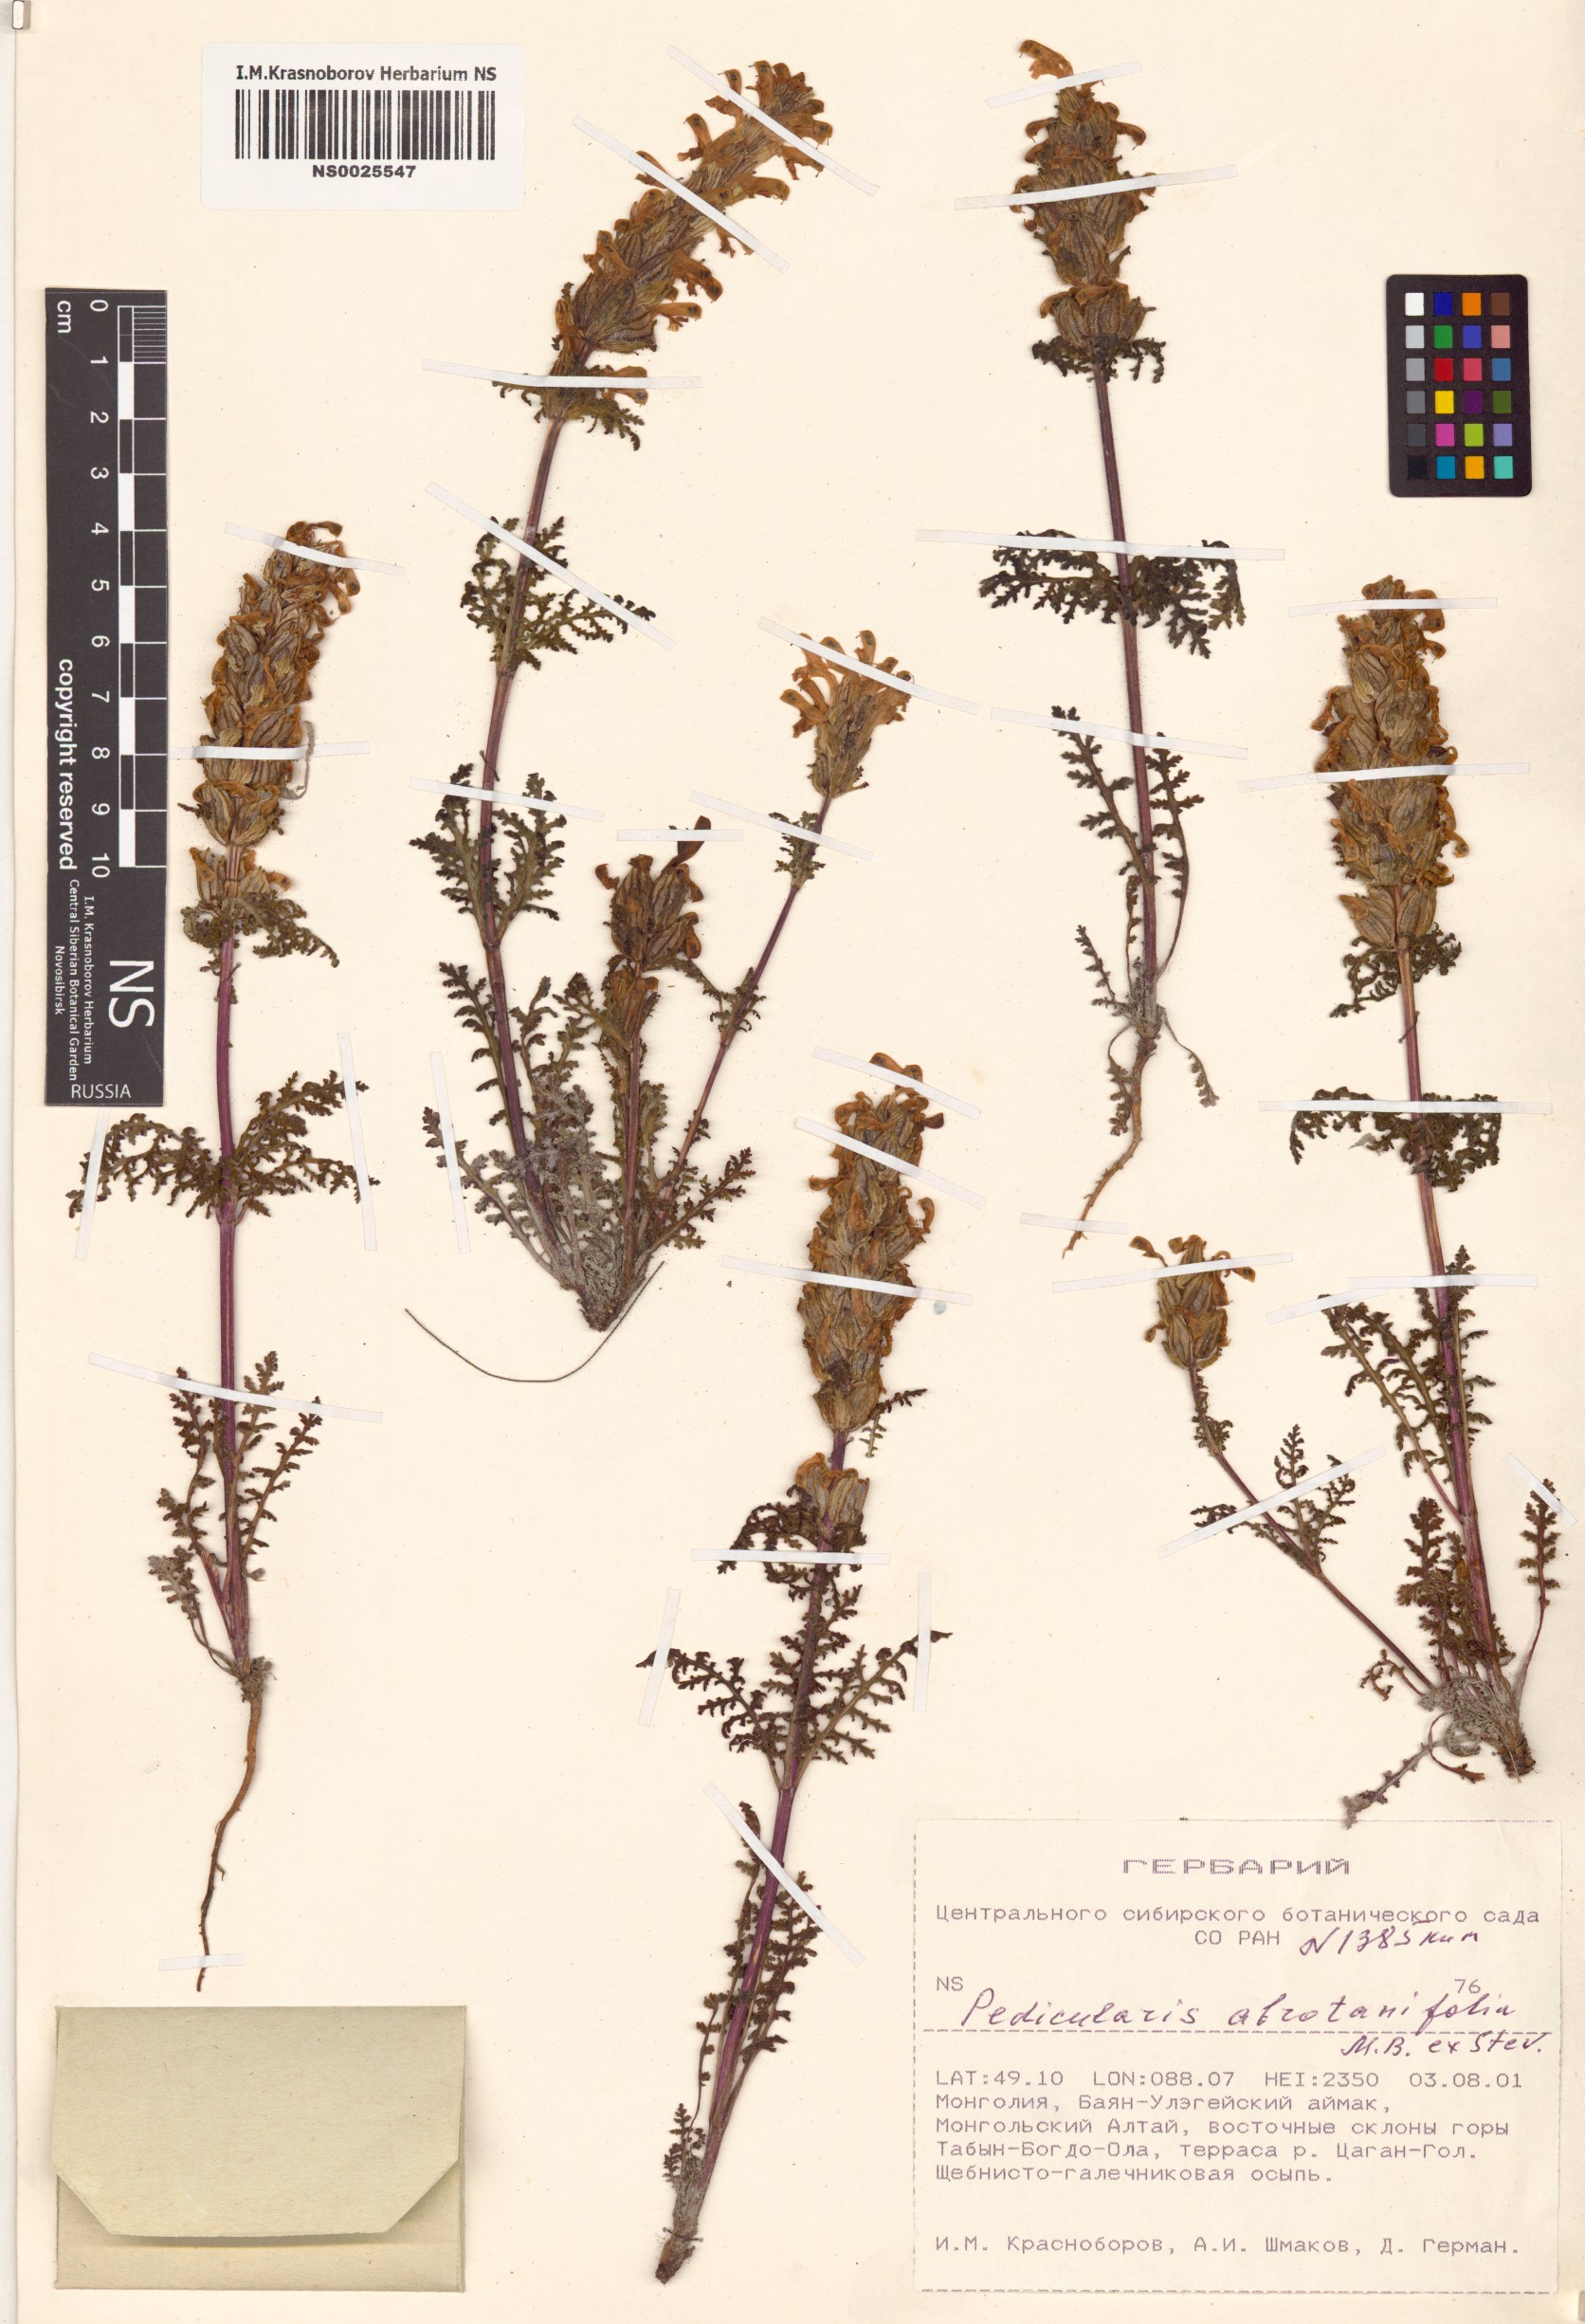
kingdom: Plantae
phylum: Tracheophyta
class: Magnoliopsida
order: Lamiales
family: Orobanchaceae
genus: Pedicularis
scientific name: Pedicularis abrotanifolia
